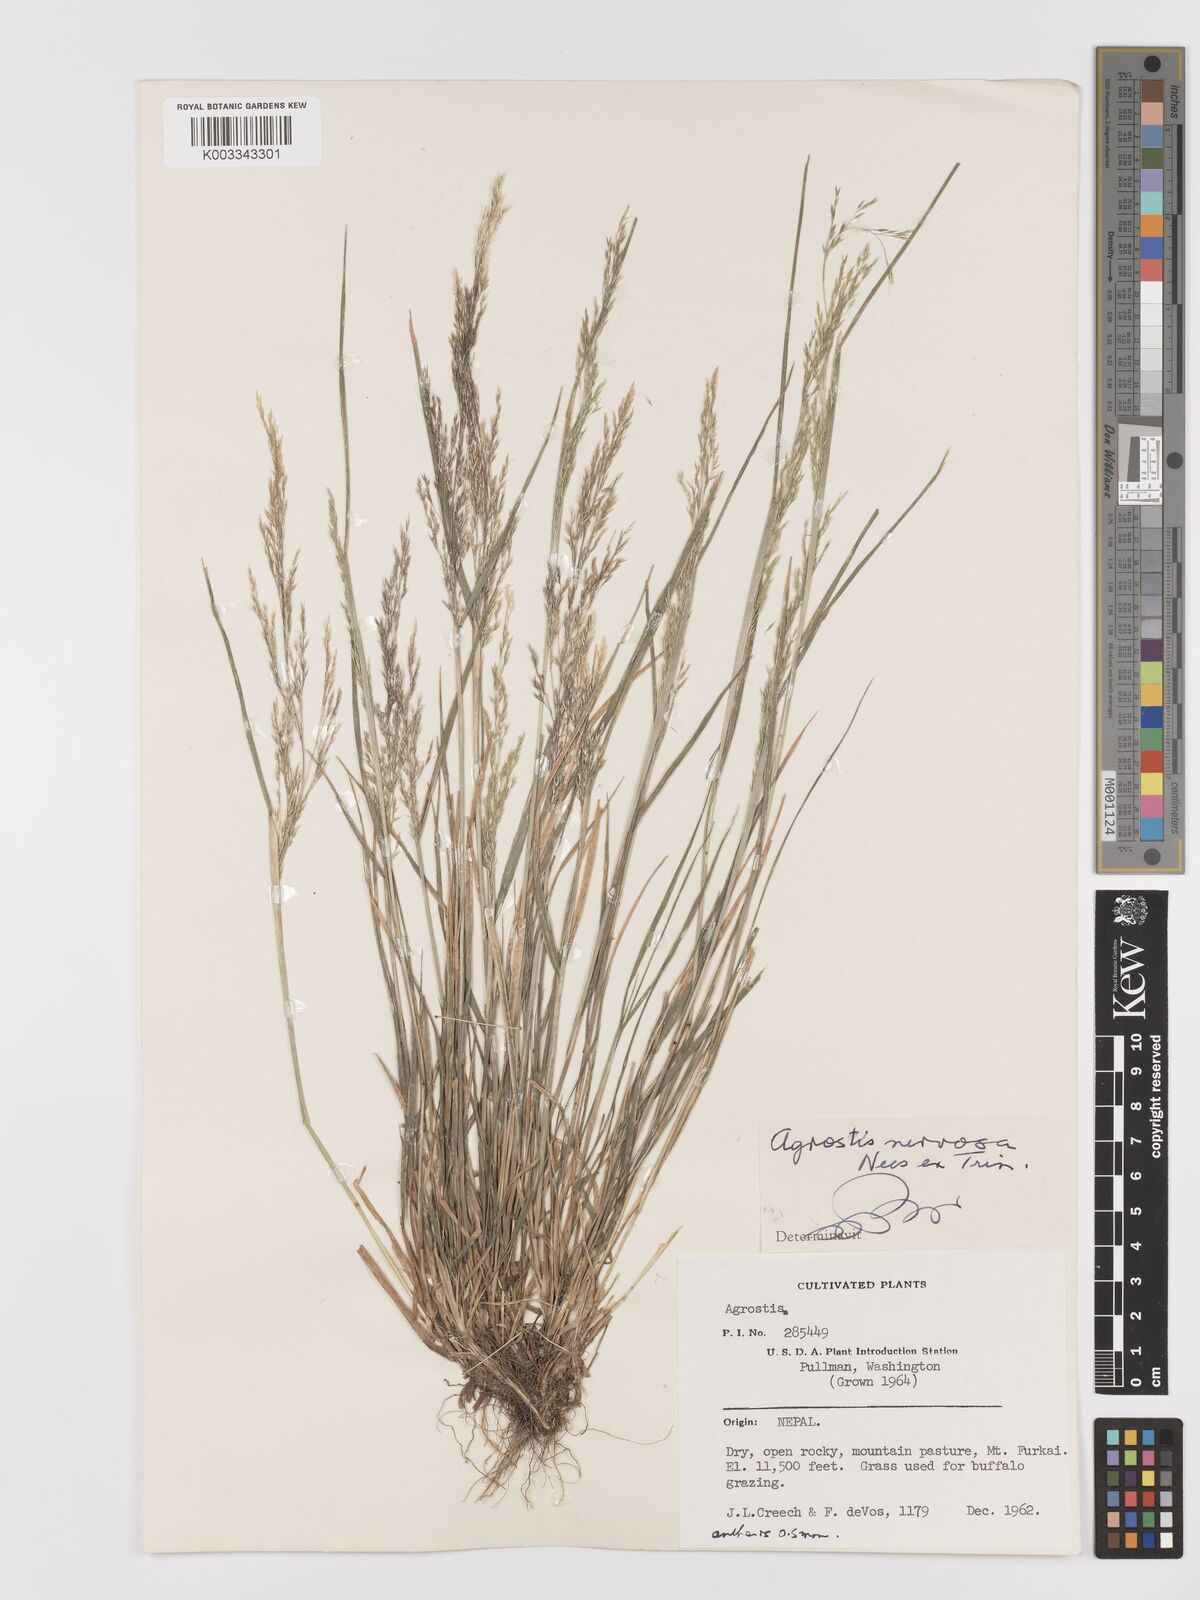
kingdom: Plantae
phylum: Tracheophyta
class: Liliopsida
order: Poales
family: Poaceae
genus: Agrostis
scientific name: Agrostis nervosa
